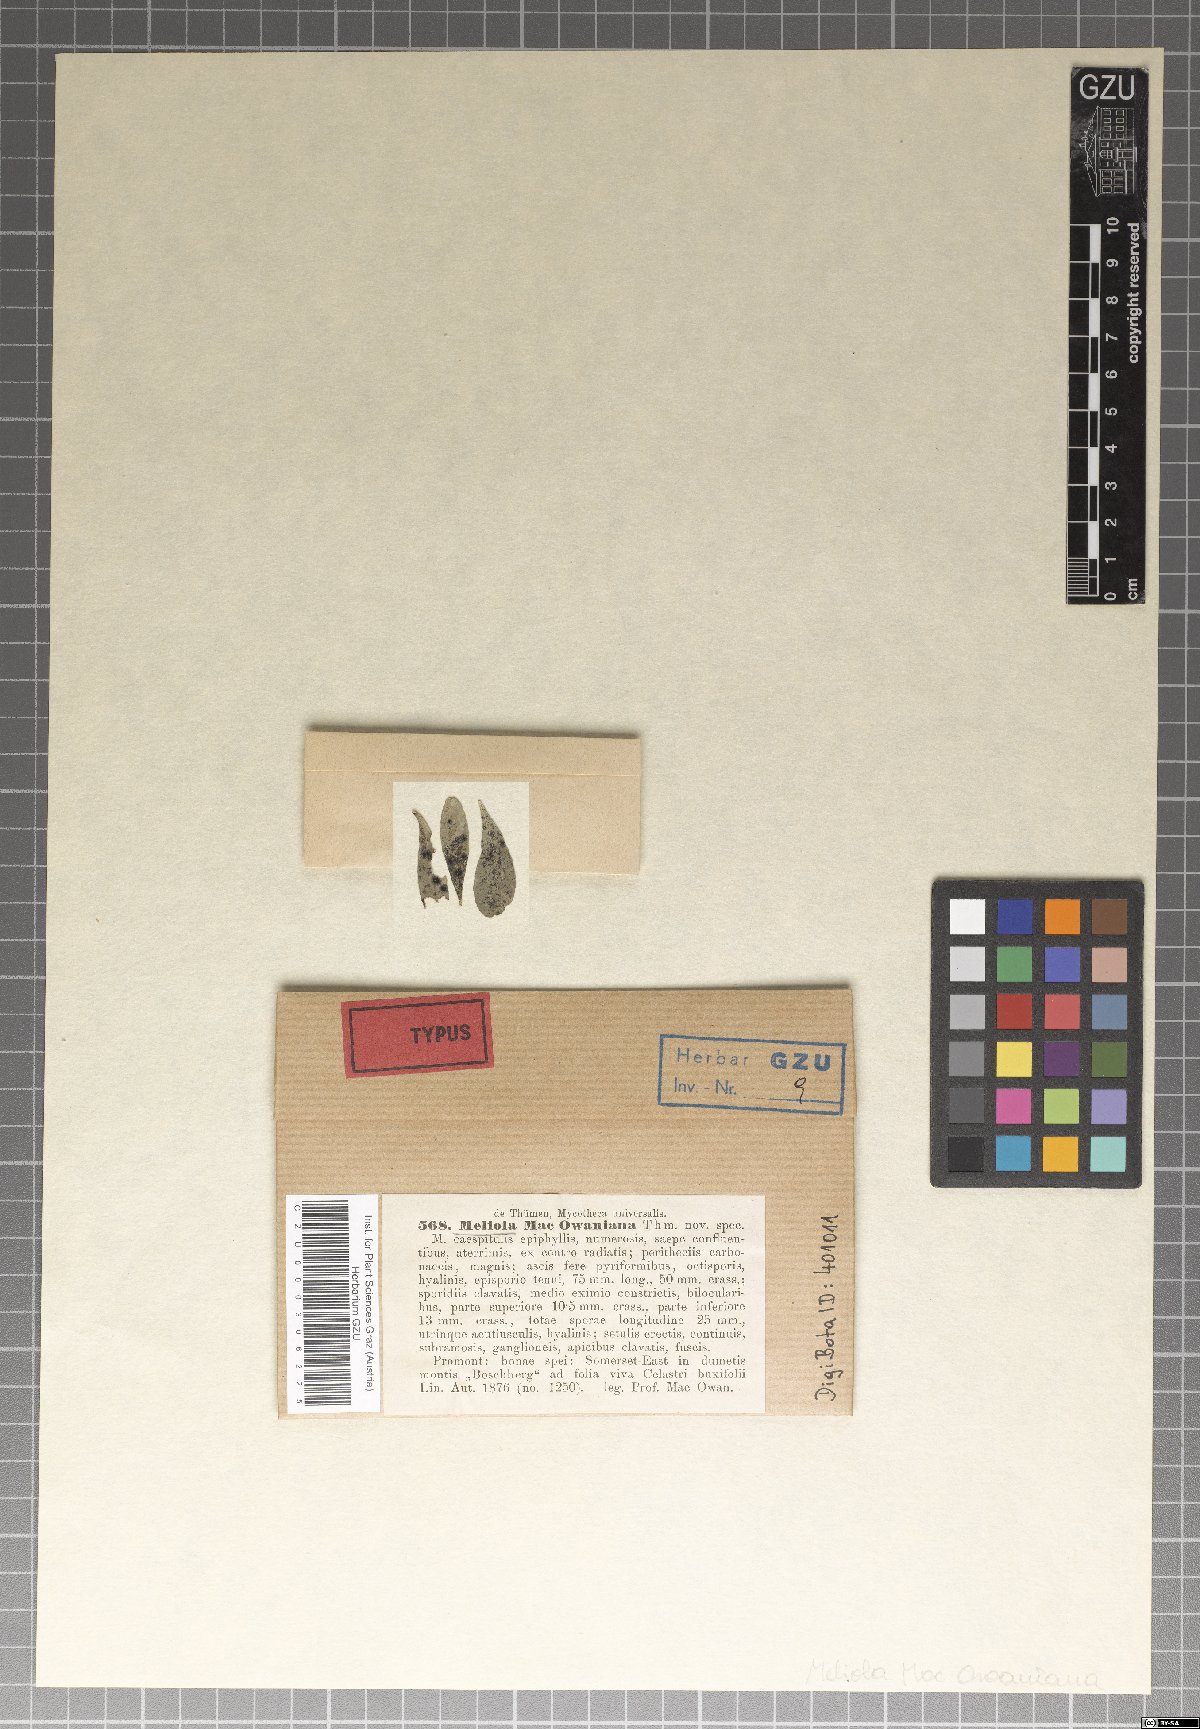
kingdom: Fungi
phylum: Ascomycota
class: Dothideomycetes
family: Englerulaceae
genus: Parenglerula
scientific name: Parenglerula macowaniana
